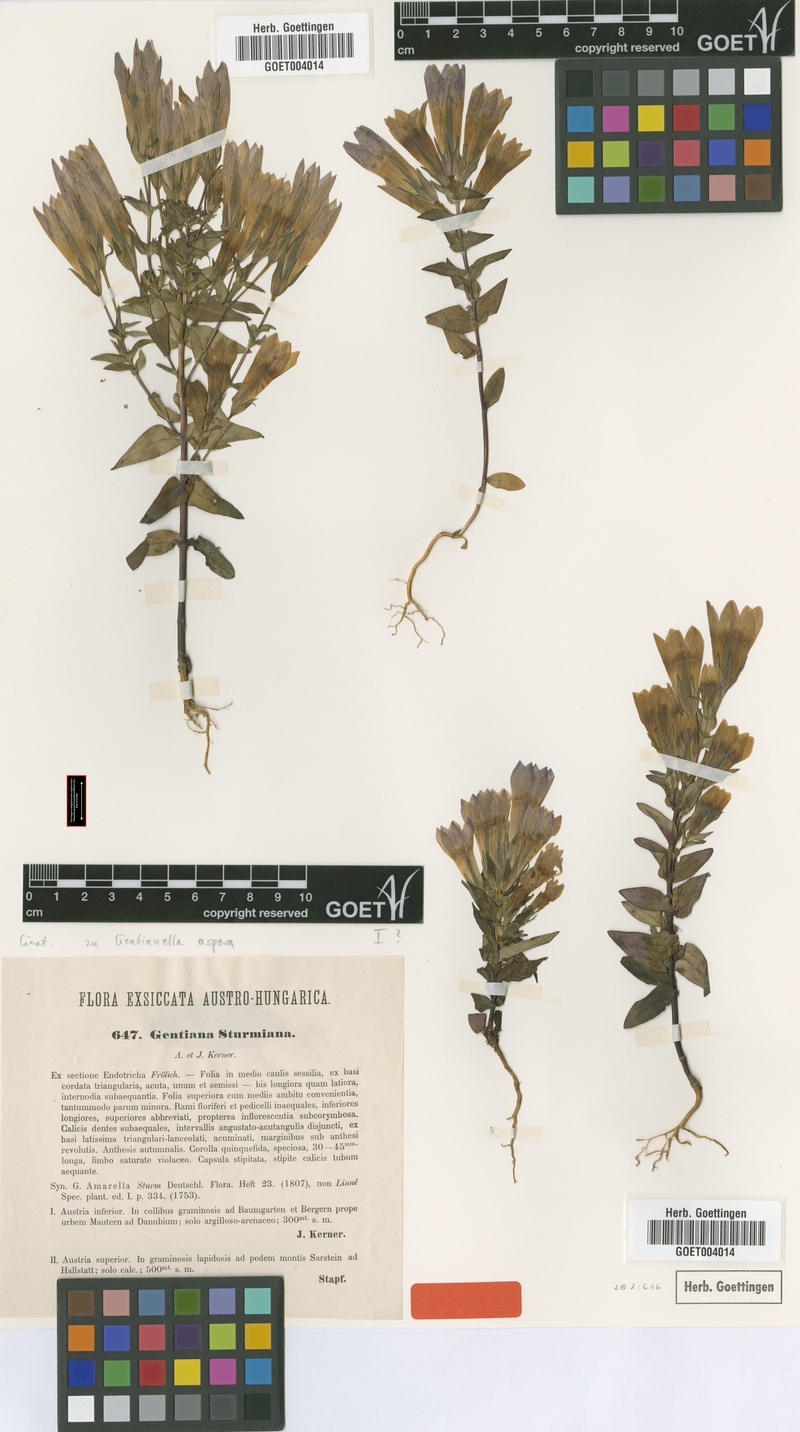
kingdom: Plantae
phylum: Tracheophyta
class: Magnoliopsida
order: Gentianales
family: Gentianaceae
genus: Gentianella
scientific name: Gentianella obtusifolia
